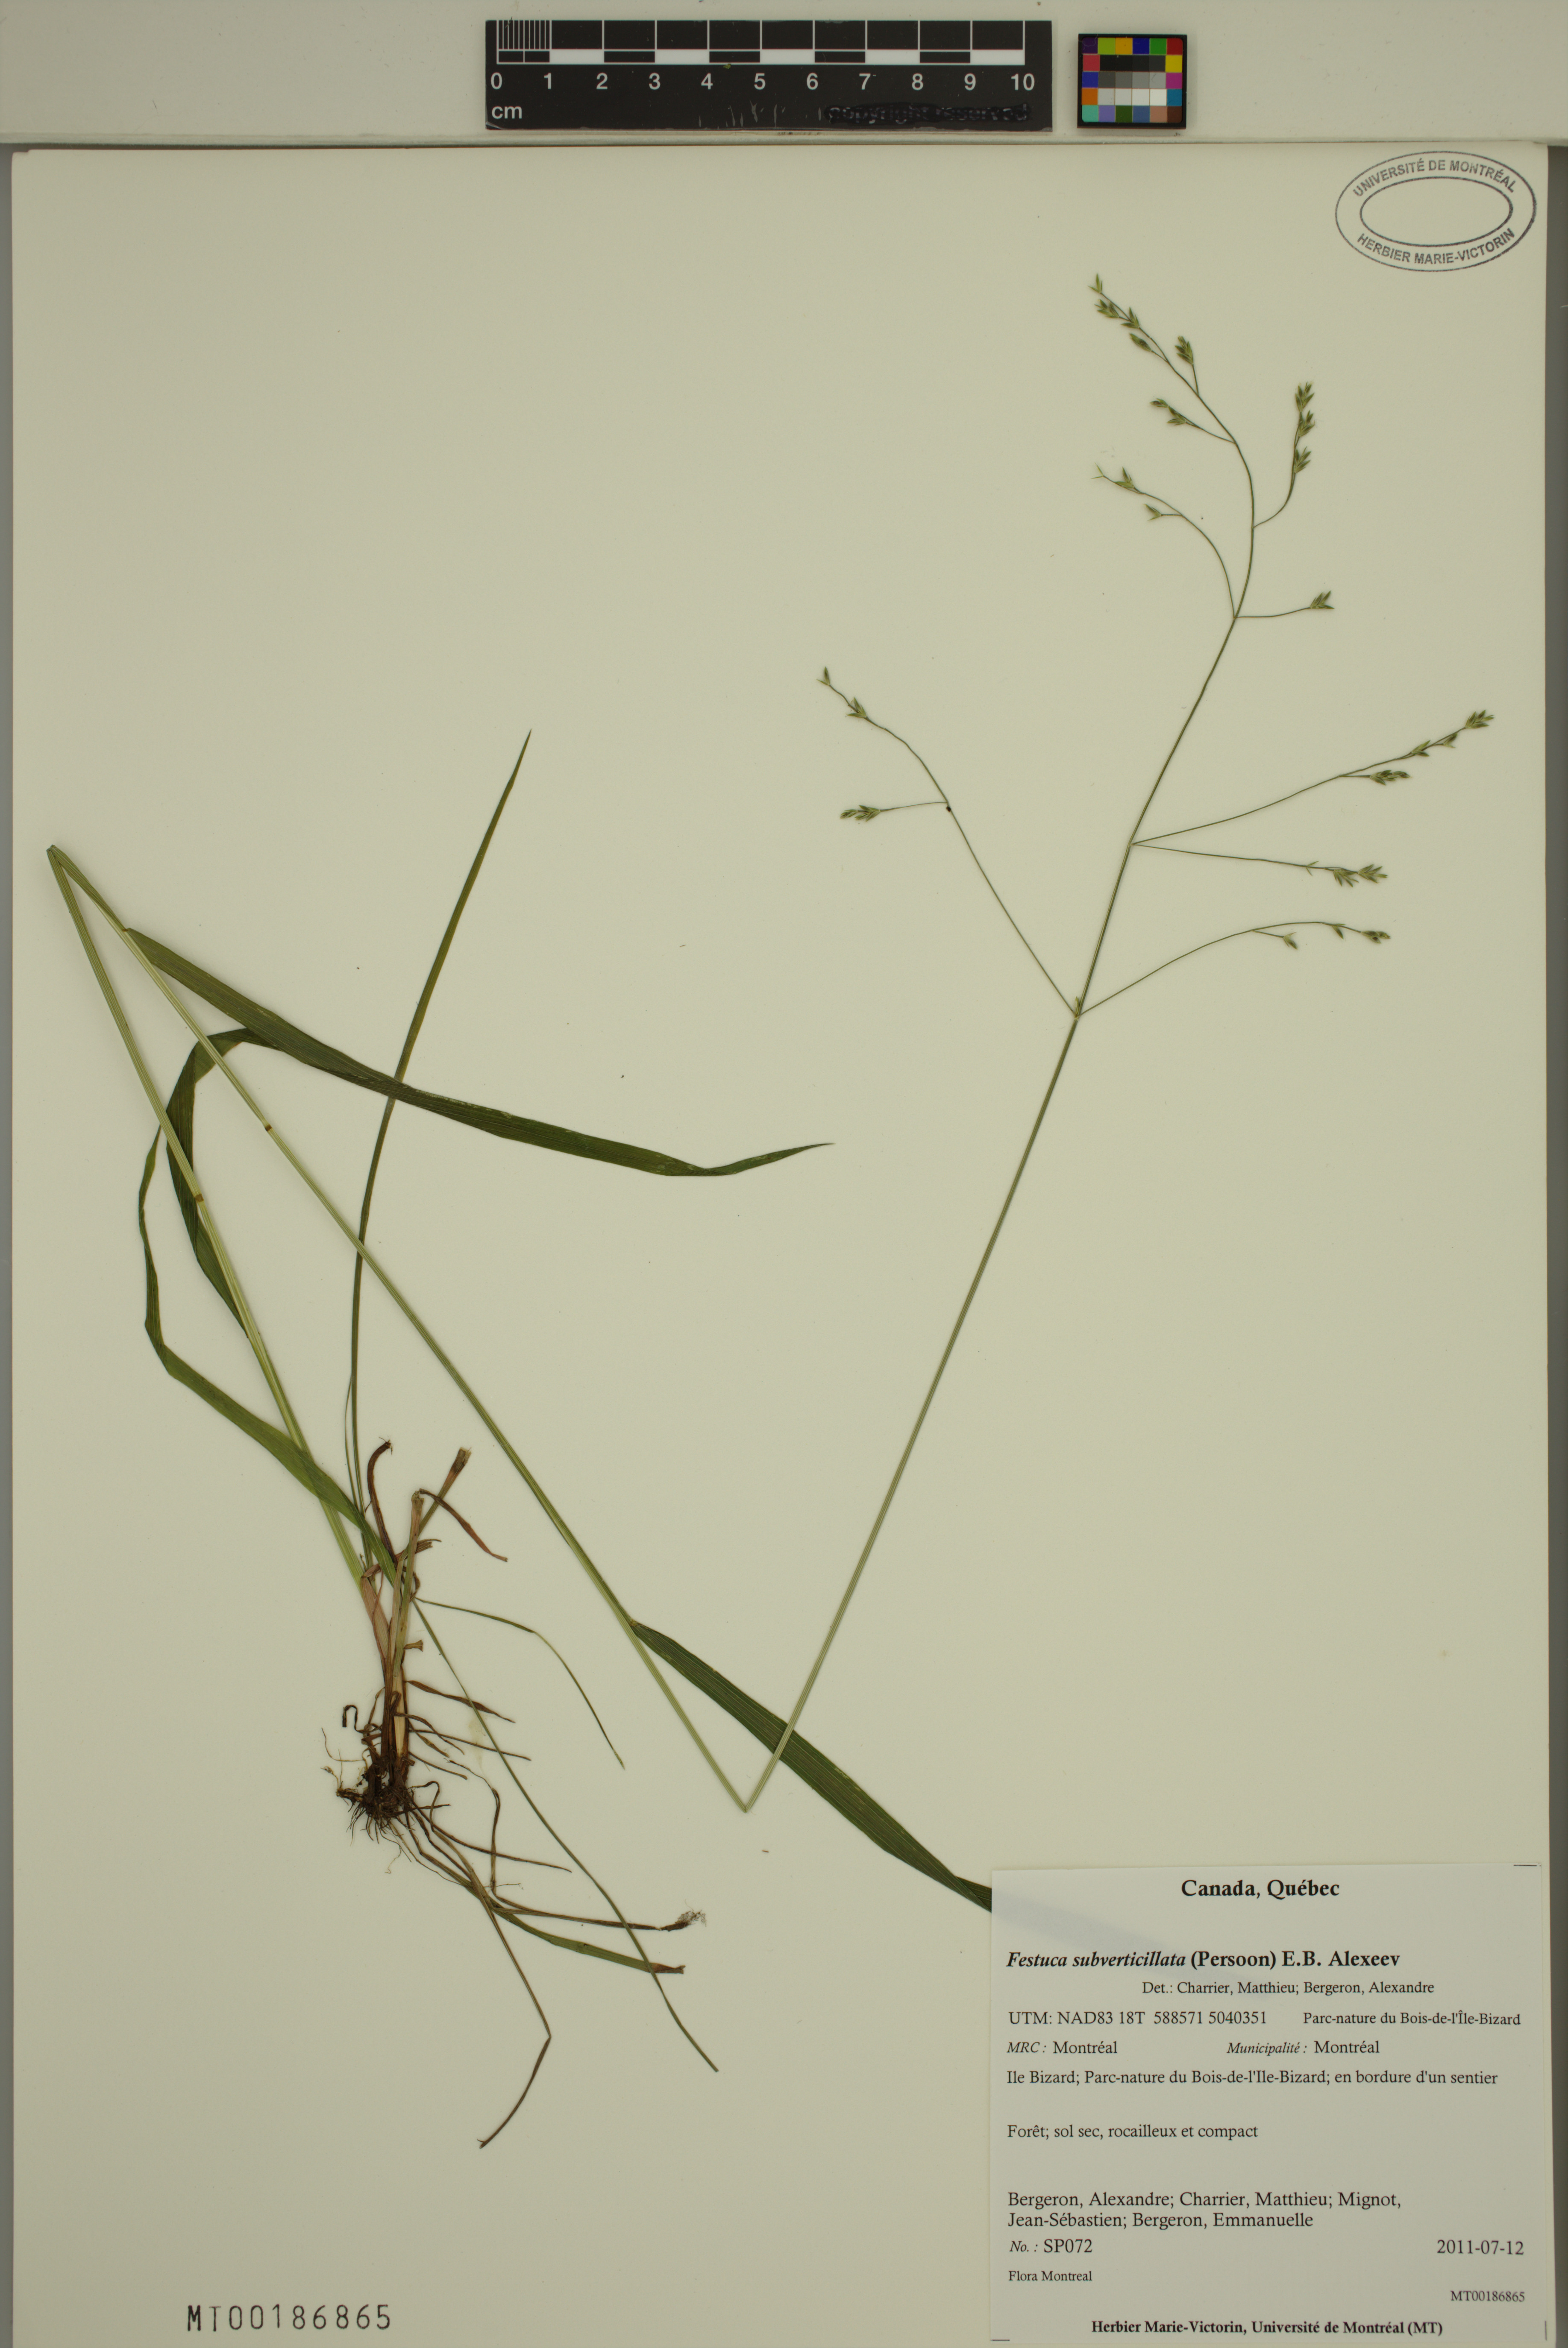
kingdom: Plantae
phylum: Tracheophyta
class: Liliopsida
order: Poales
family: Poaceae
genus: Festuca
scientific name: Festuca subverticillata
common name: Nodding fescue
